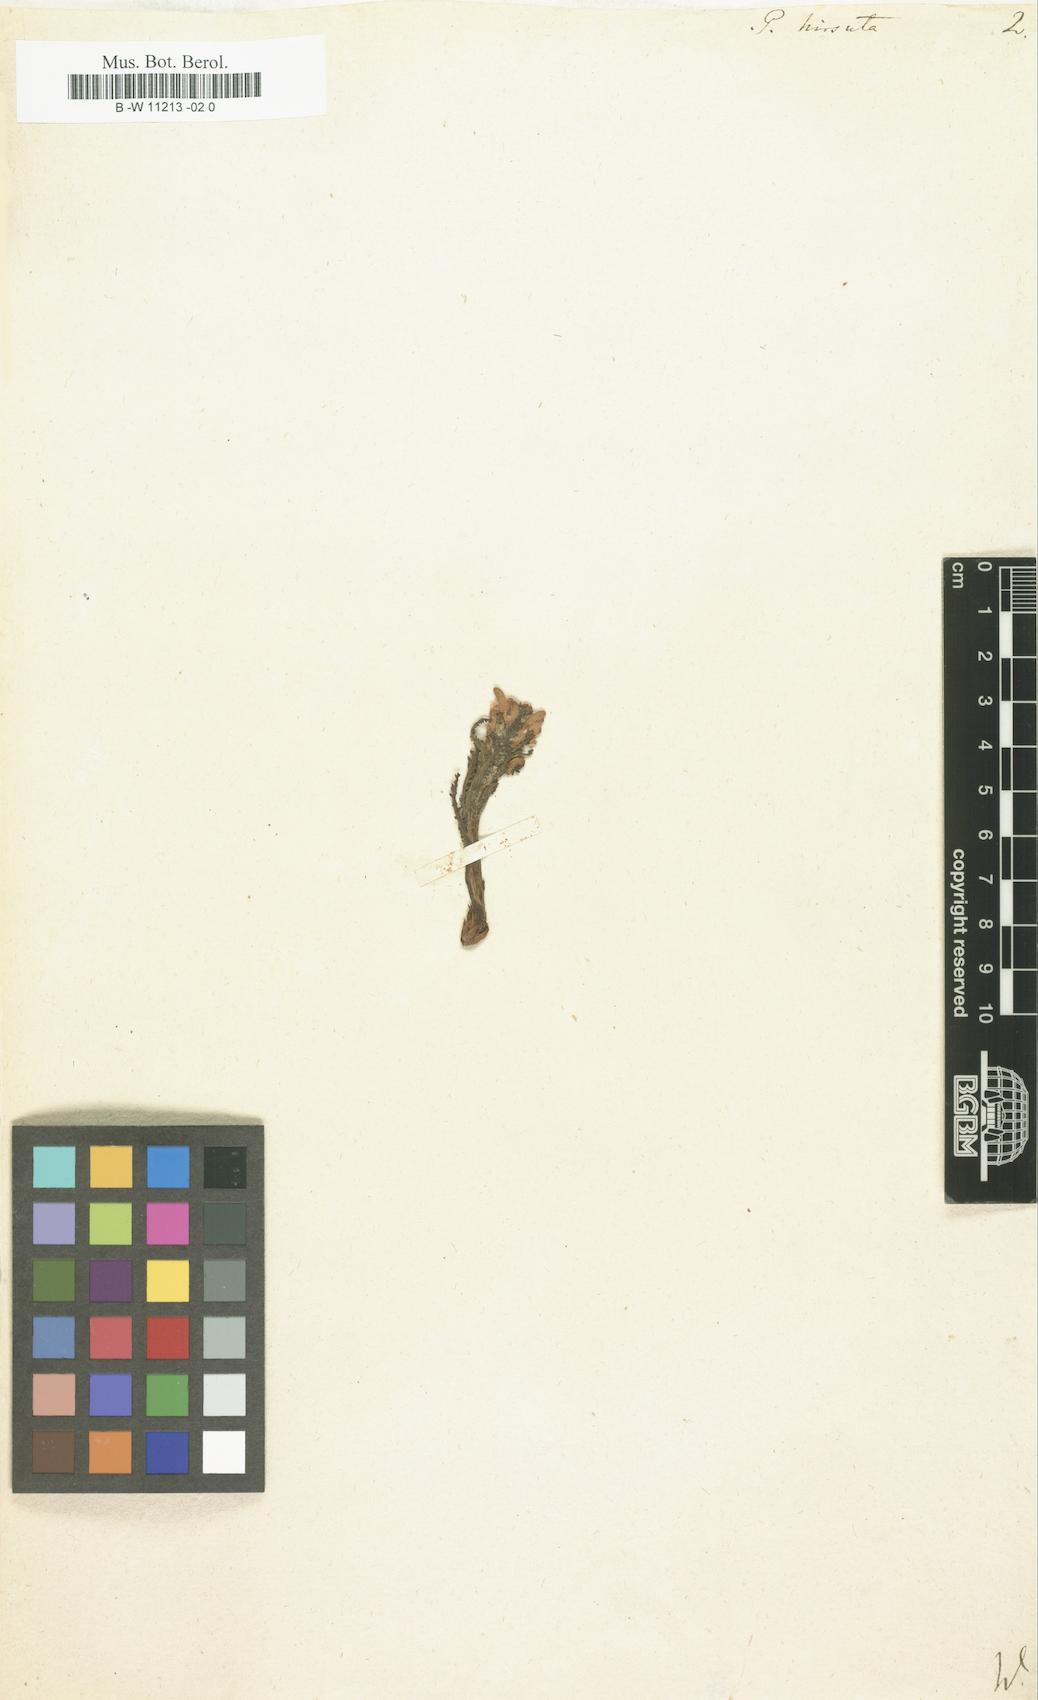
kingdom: Plantae
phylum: Tracheophyta
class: Magnoliopsida
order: Lamiales
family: Orobanchaceae
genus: Pedicularis
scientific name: Pedicularis hirsuta
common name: Hairy lousewort
